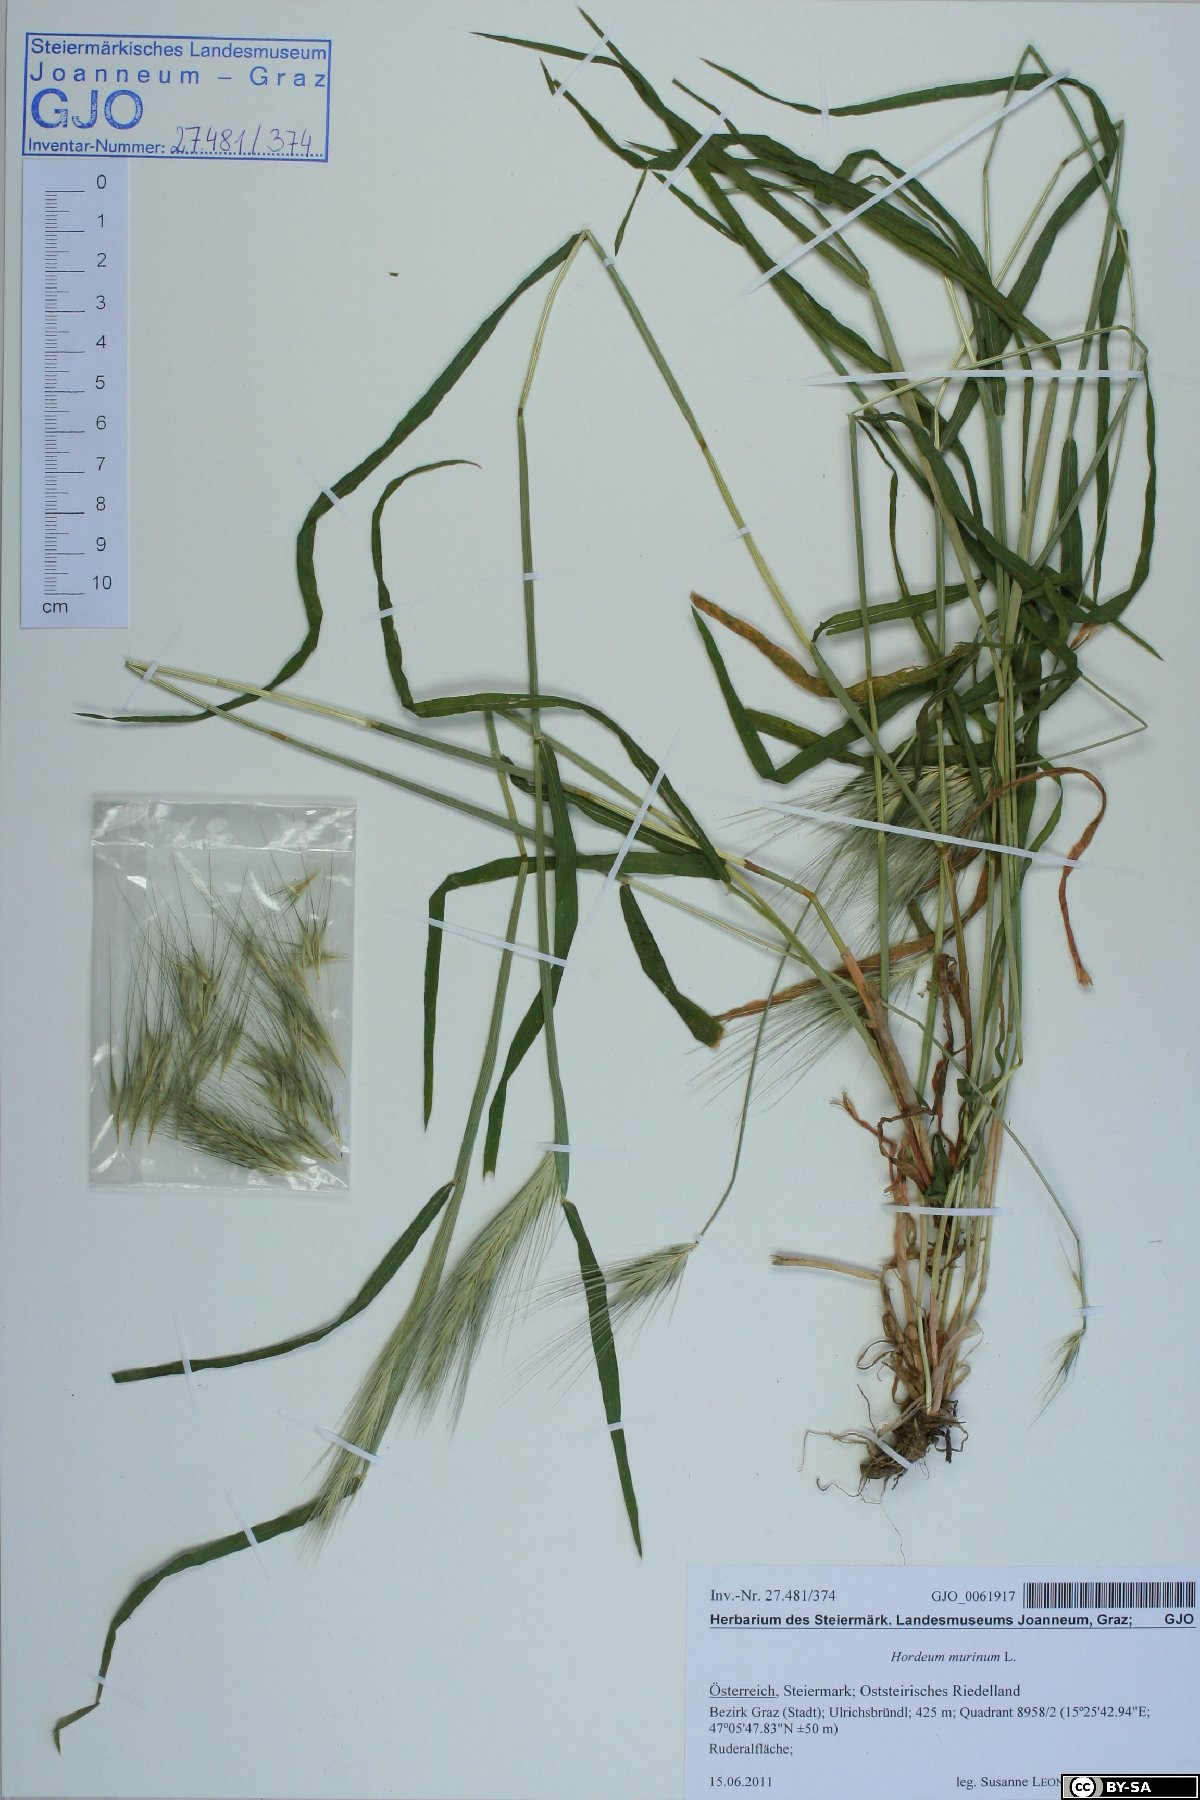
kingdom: Plantae
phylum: Tracheophyta
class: Liliopsida
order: Poales
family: Poaceae
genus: Hordeum
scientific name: Hordeum murinum
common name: Wall barley
